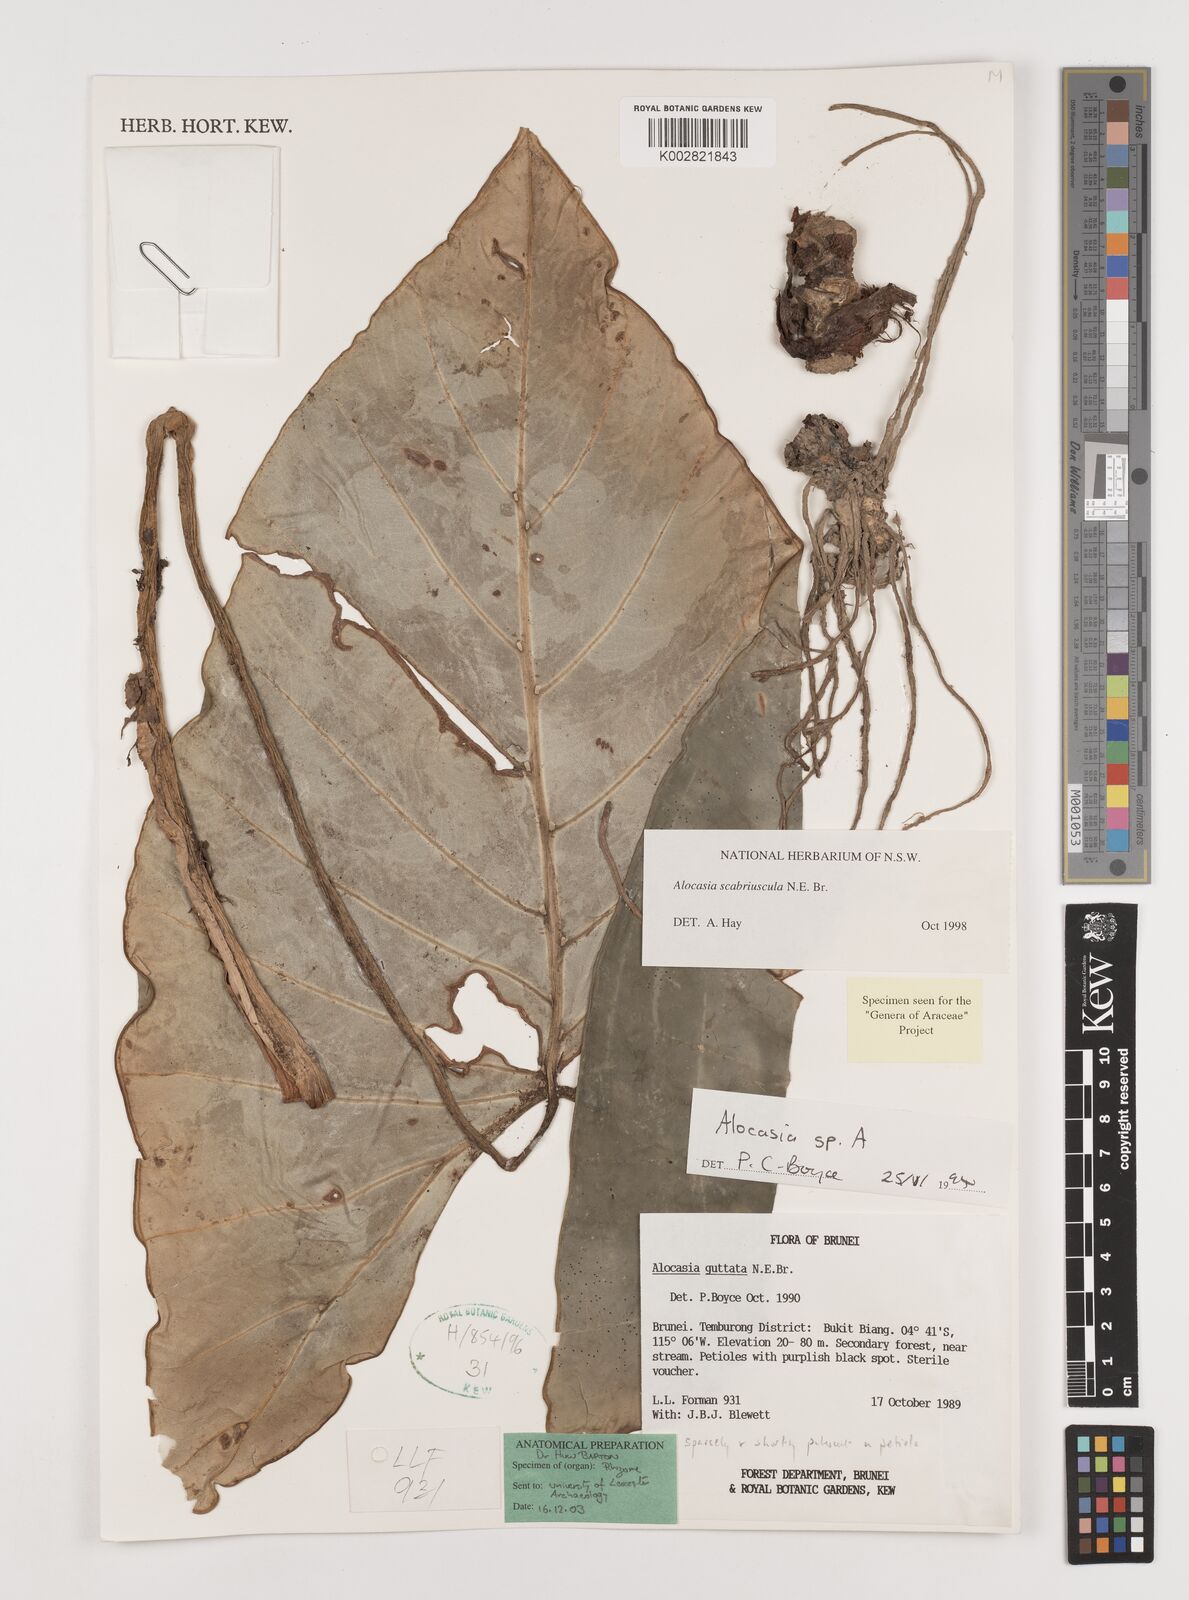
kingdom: Plantae
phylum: Tracheophyta
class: Liliopsida
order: Alismatales
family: Araceae
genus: Alocasia
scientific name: Alocasia scabriuscula
